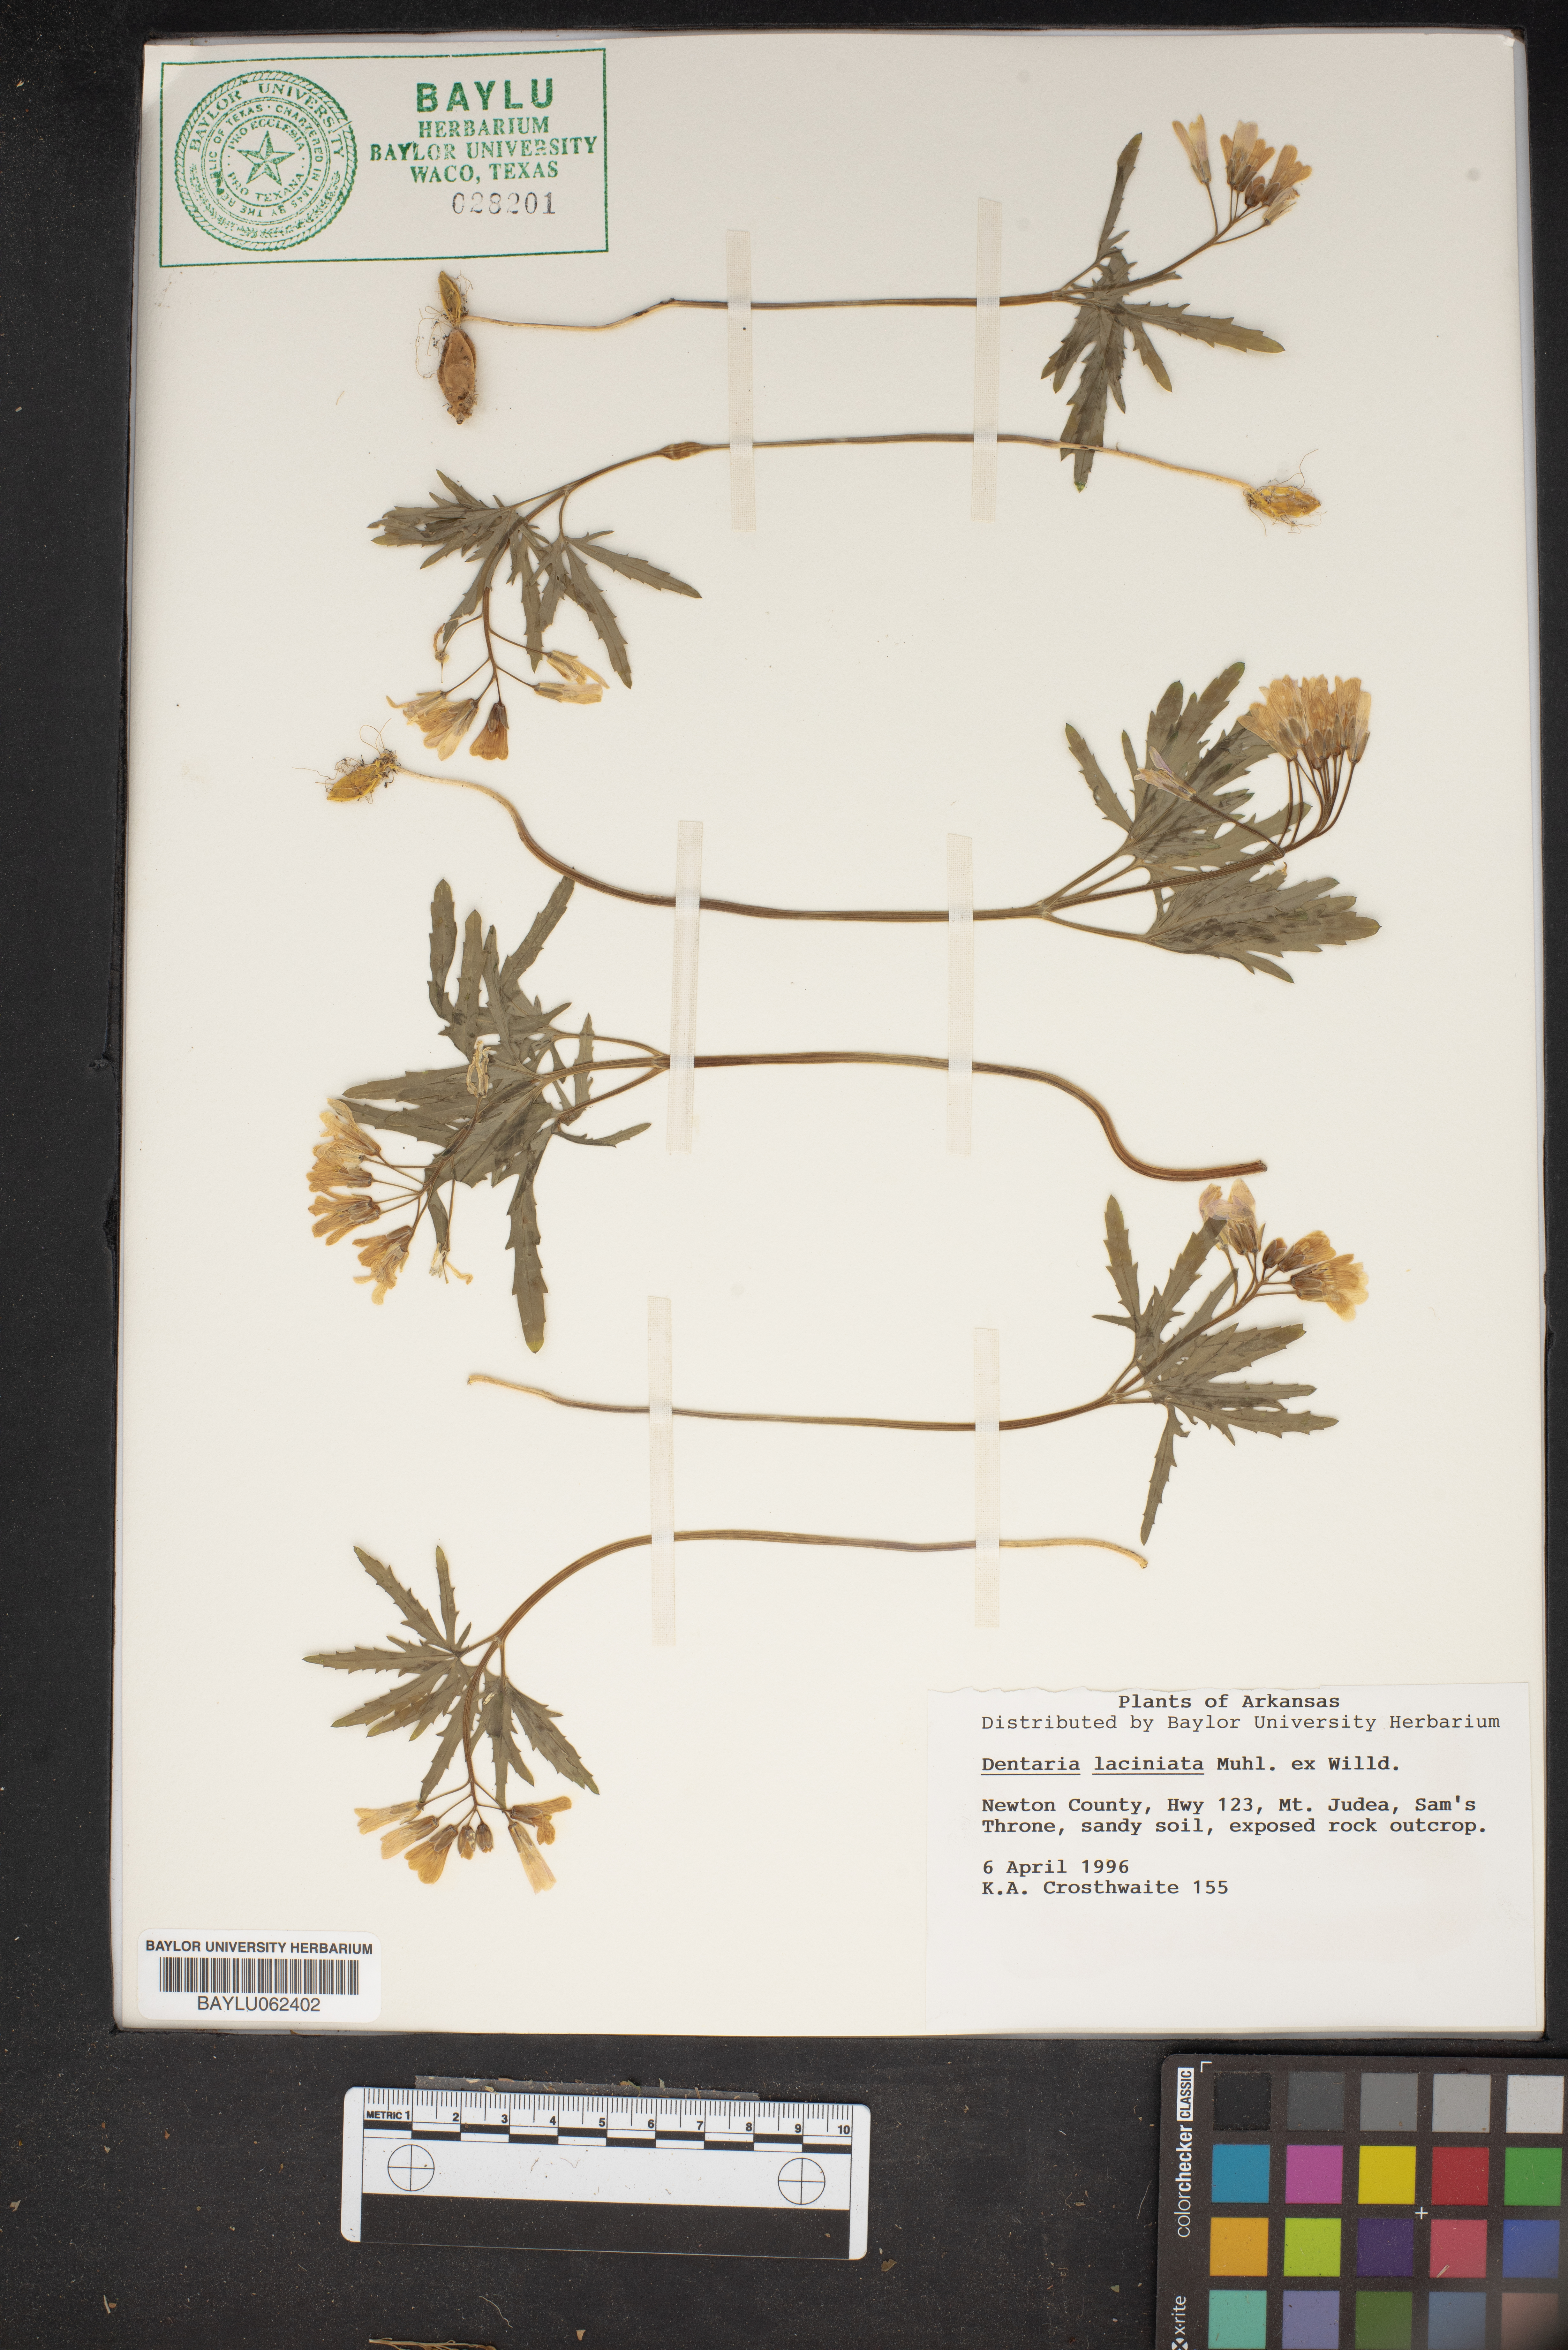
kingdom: Plantae
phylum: Tracheophyta
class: Magnoliopsida
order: Brassicales
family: Brassicaceae
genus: Cardamine
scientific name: Cardamine concatenata
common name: Cut-leaf toothcup
